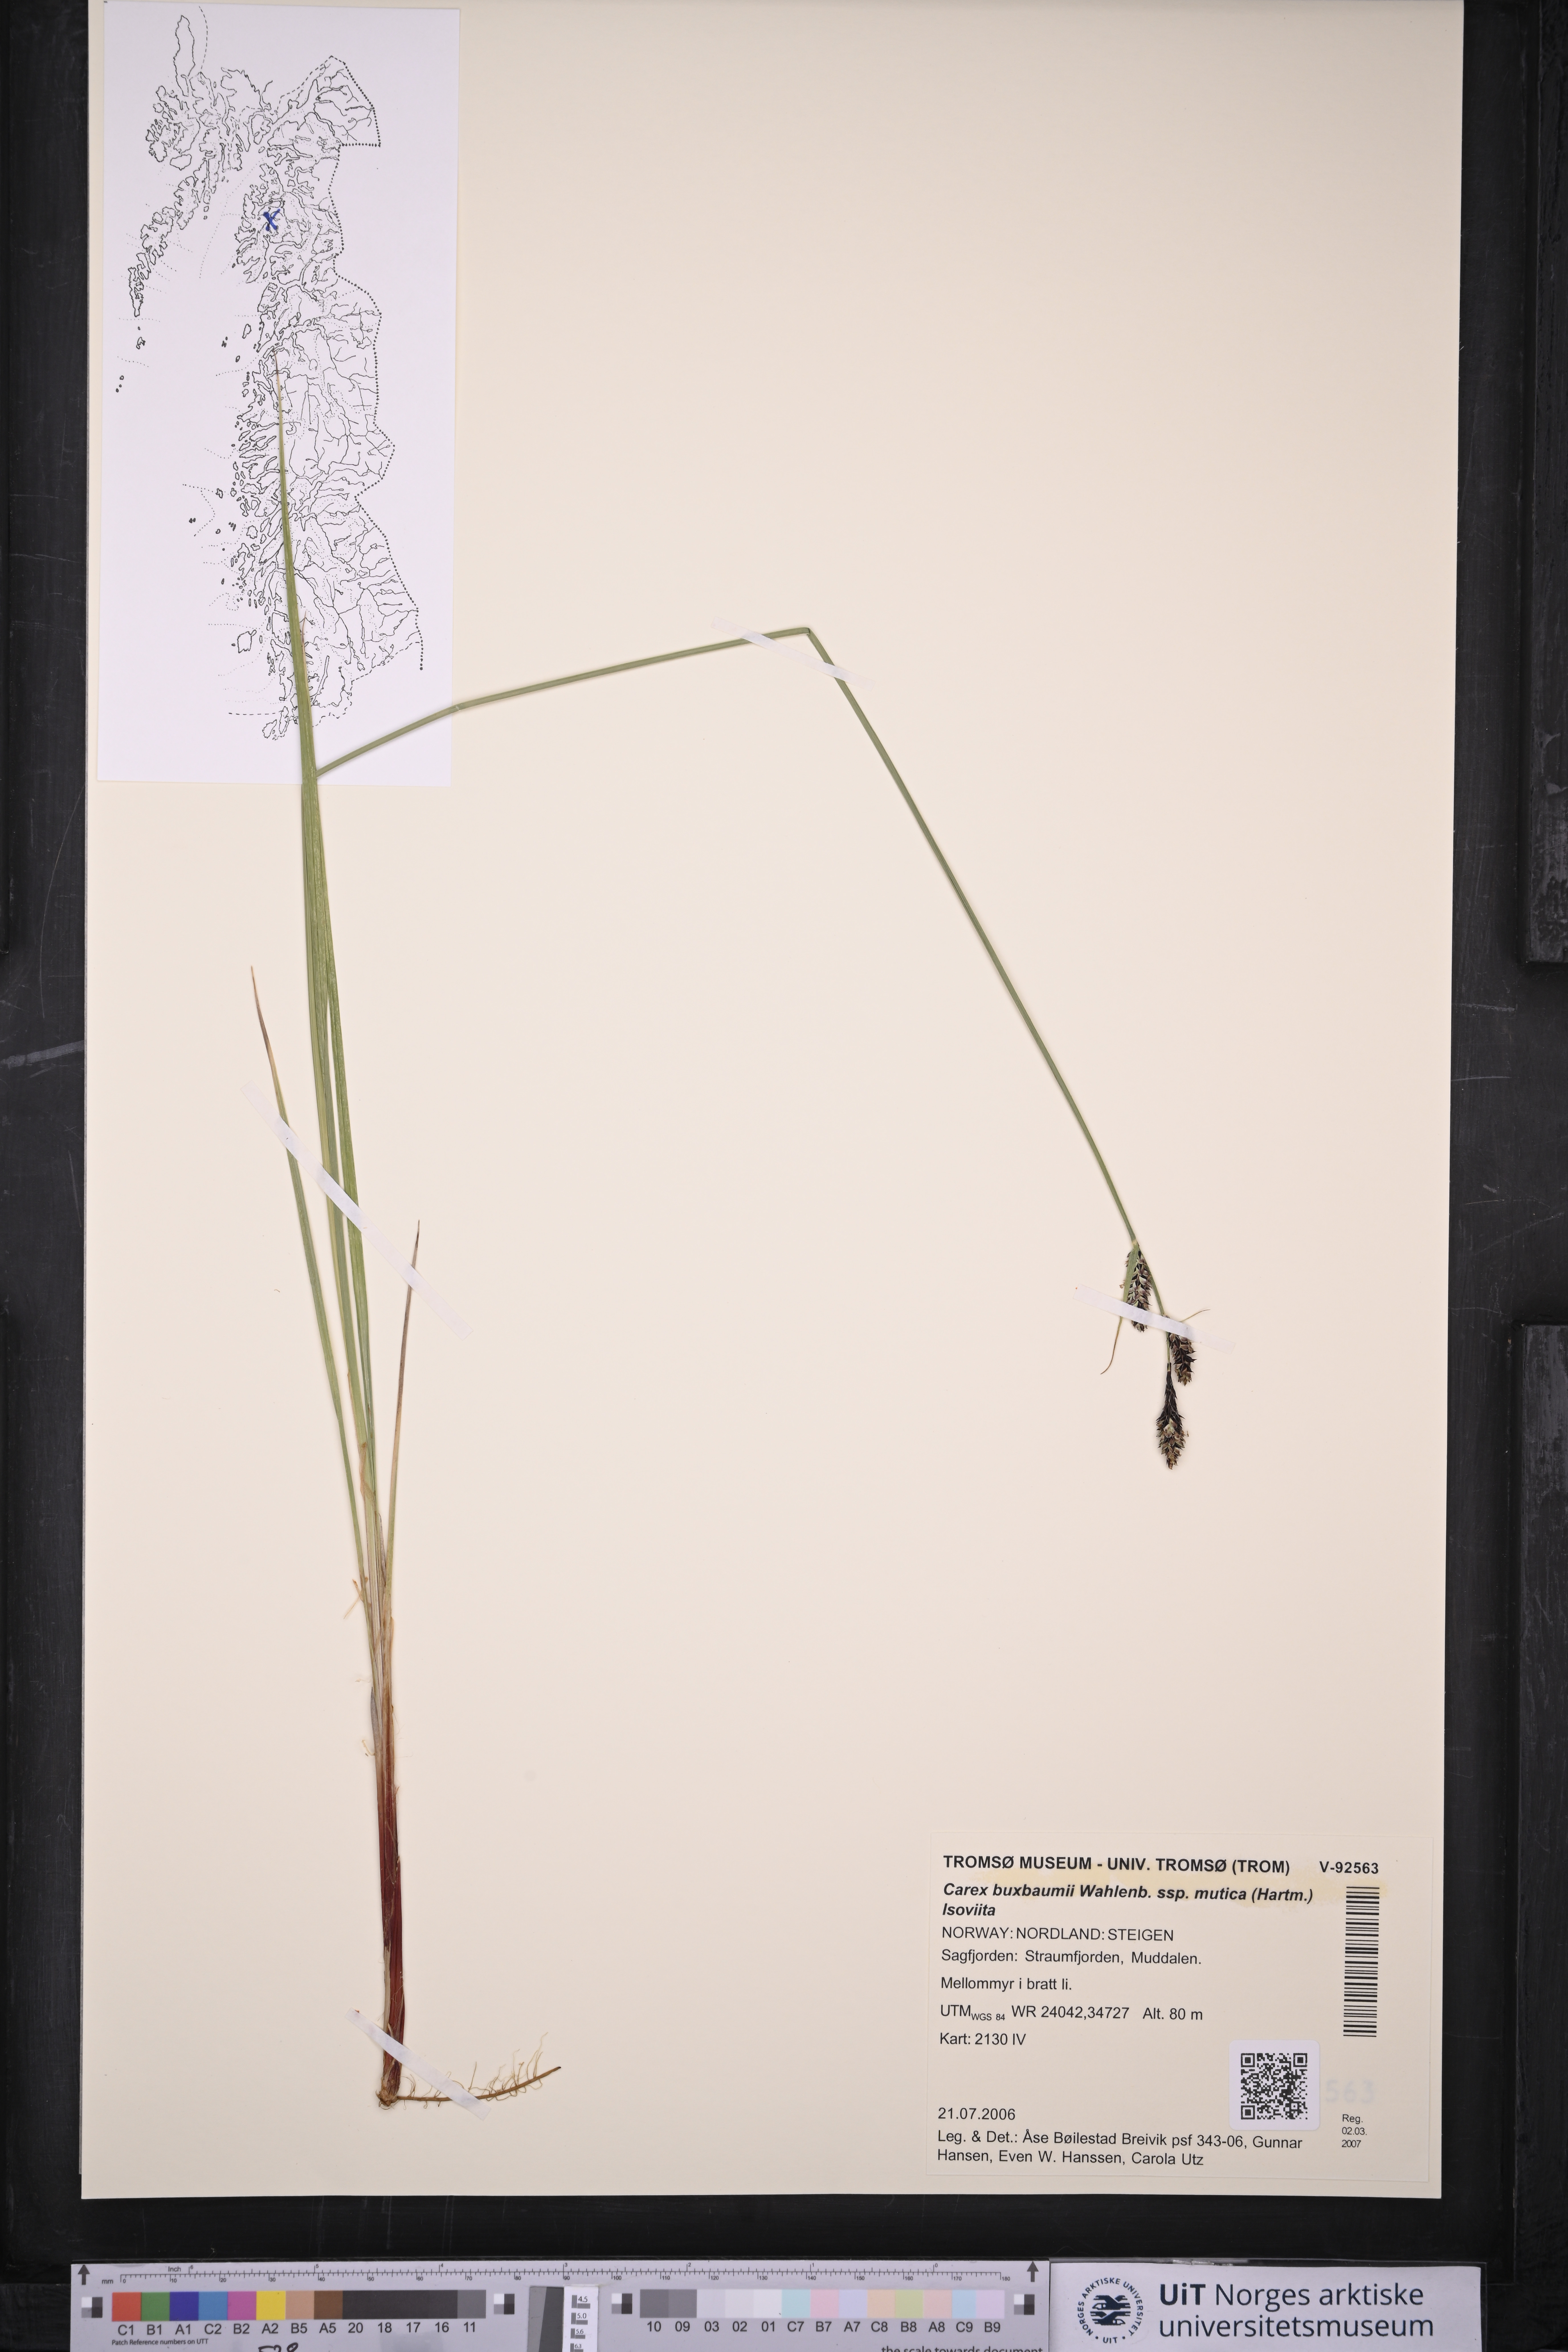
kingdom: Plantae
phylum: Tracheophyta
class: Liliopsida
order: Poales
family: Cyperaceae
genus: Carex
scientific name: Carex adelostoma
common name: Circumpolar sedge
